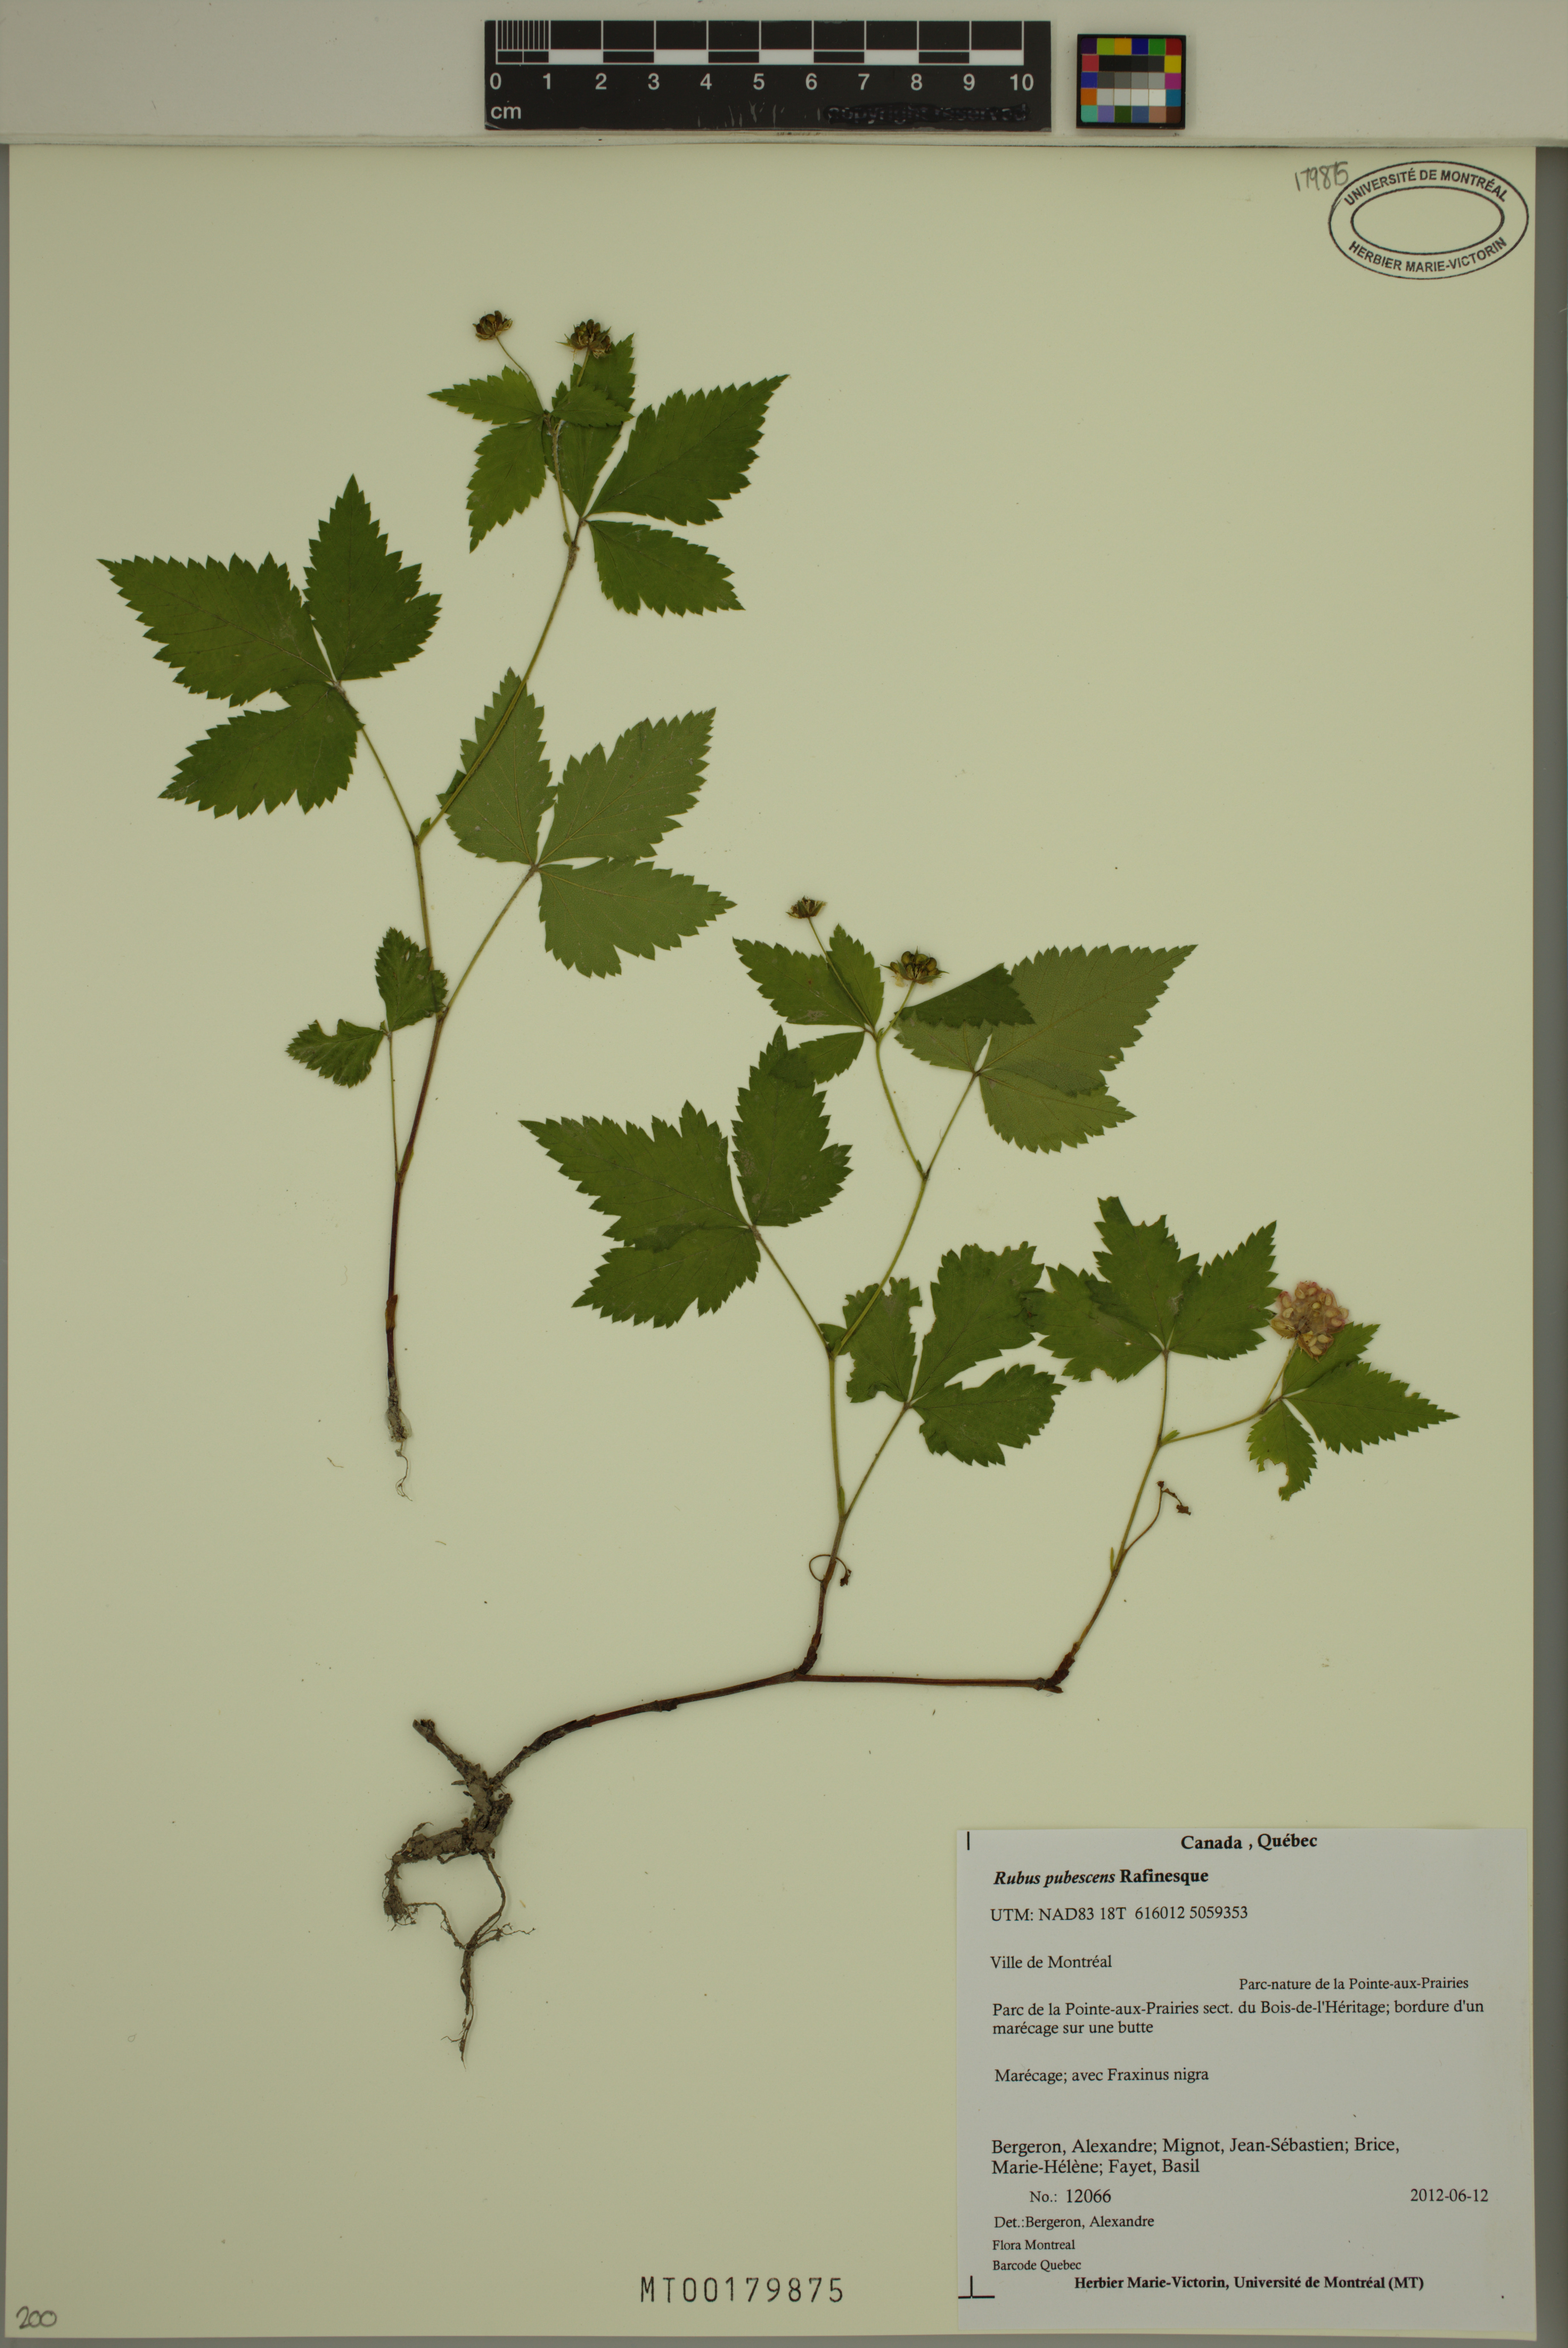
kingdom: Plantae
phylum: Tracheophyta
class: Magnoliopsida
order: Rosales
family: Rosaceae
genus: Rubus
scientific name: Rubus pubescens
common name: Dwarf raspberry
